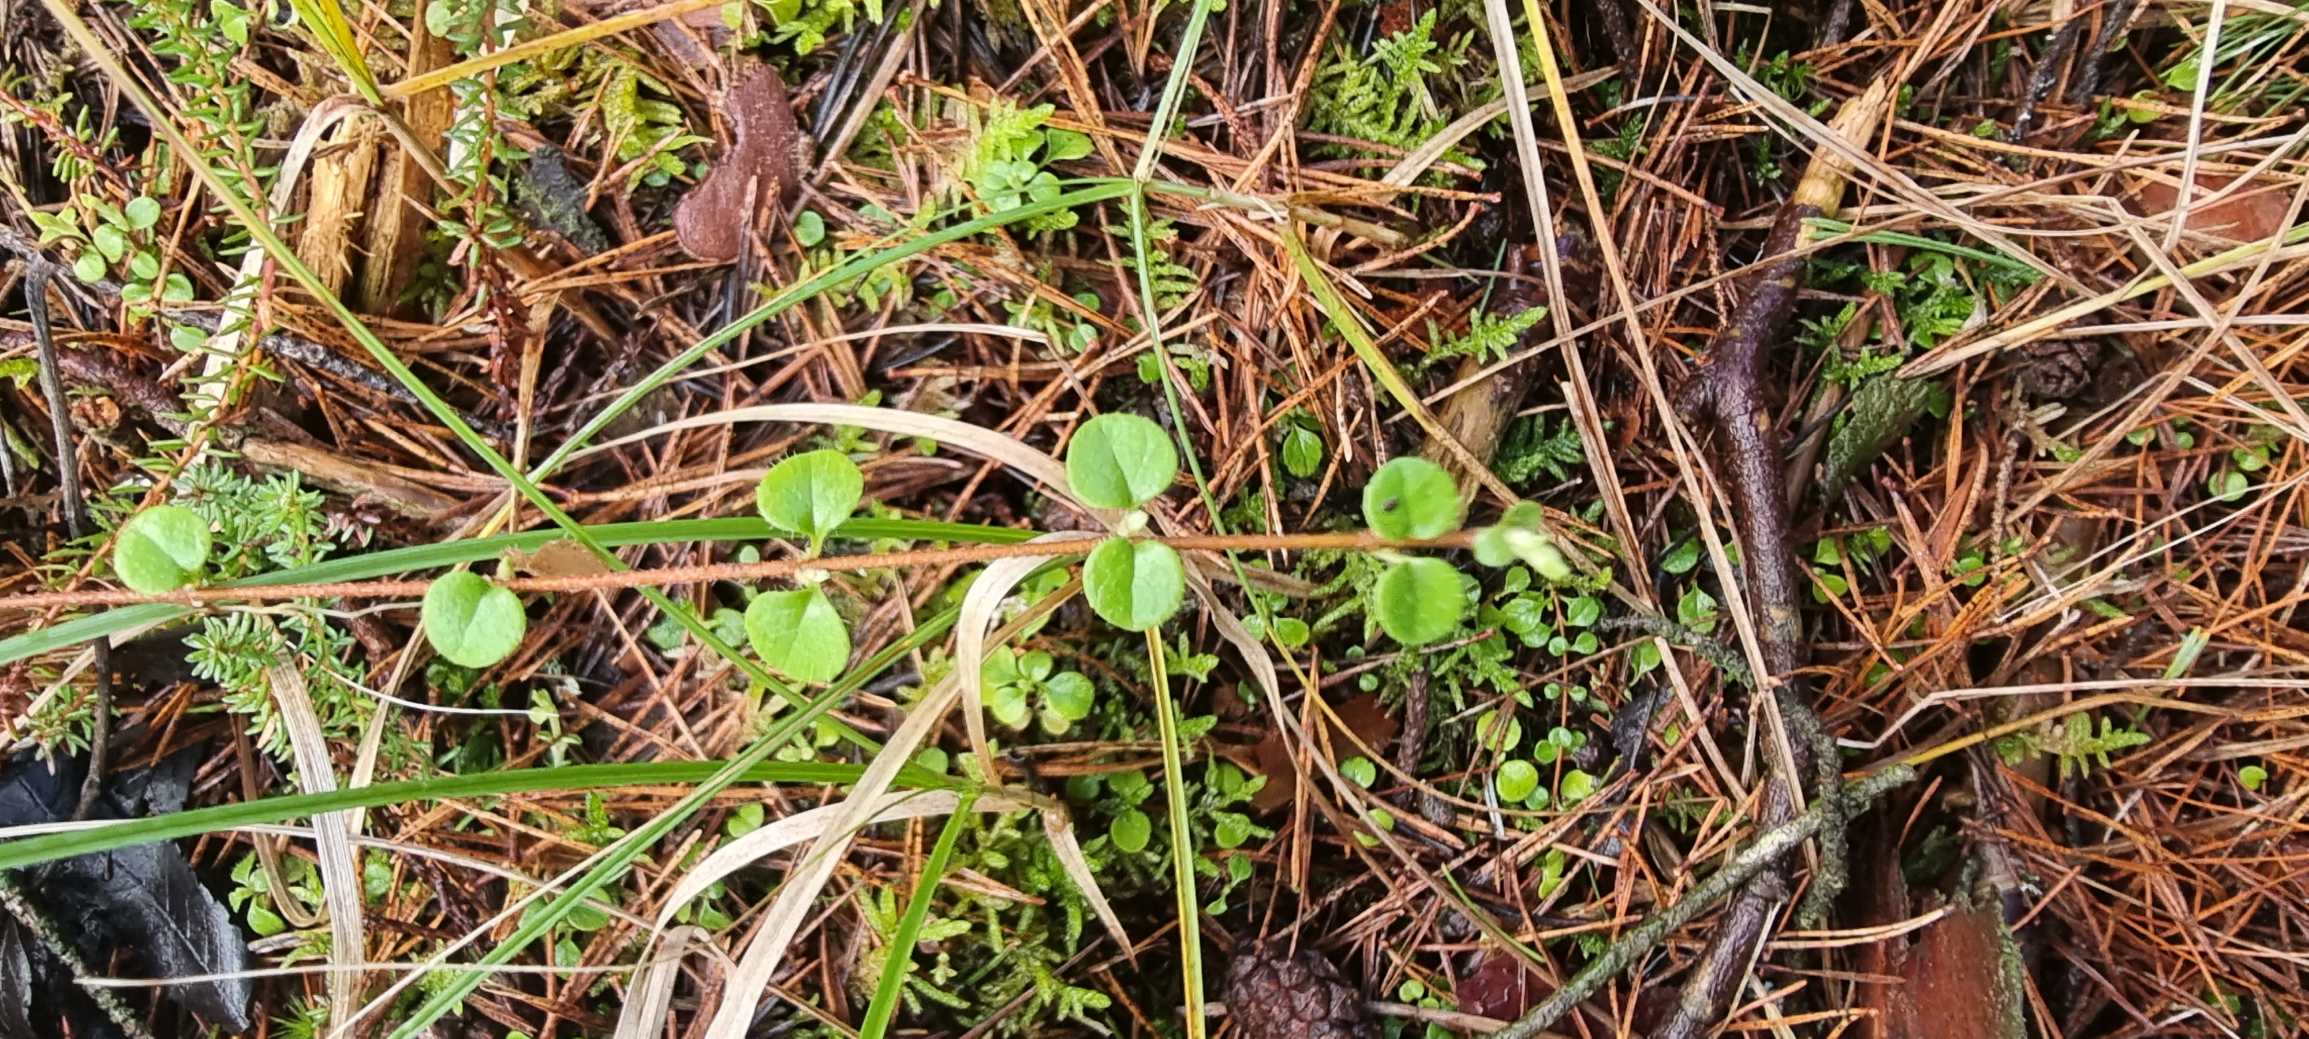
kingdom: Plantae
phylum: Tracheophyta
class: Magnoliopsida
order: Dipsacales
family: Caprifoliaceae
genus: Linnaea
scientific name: Linnaea borealis
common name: Linnæa
